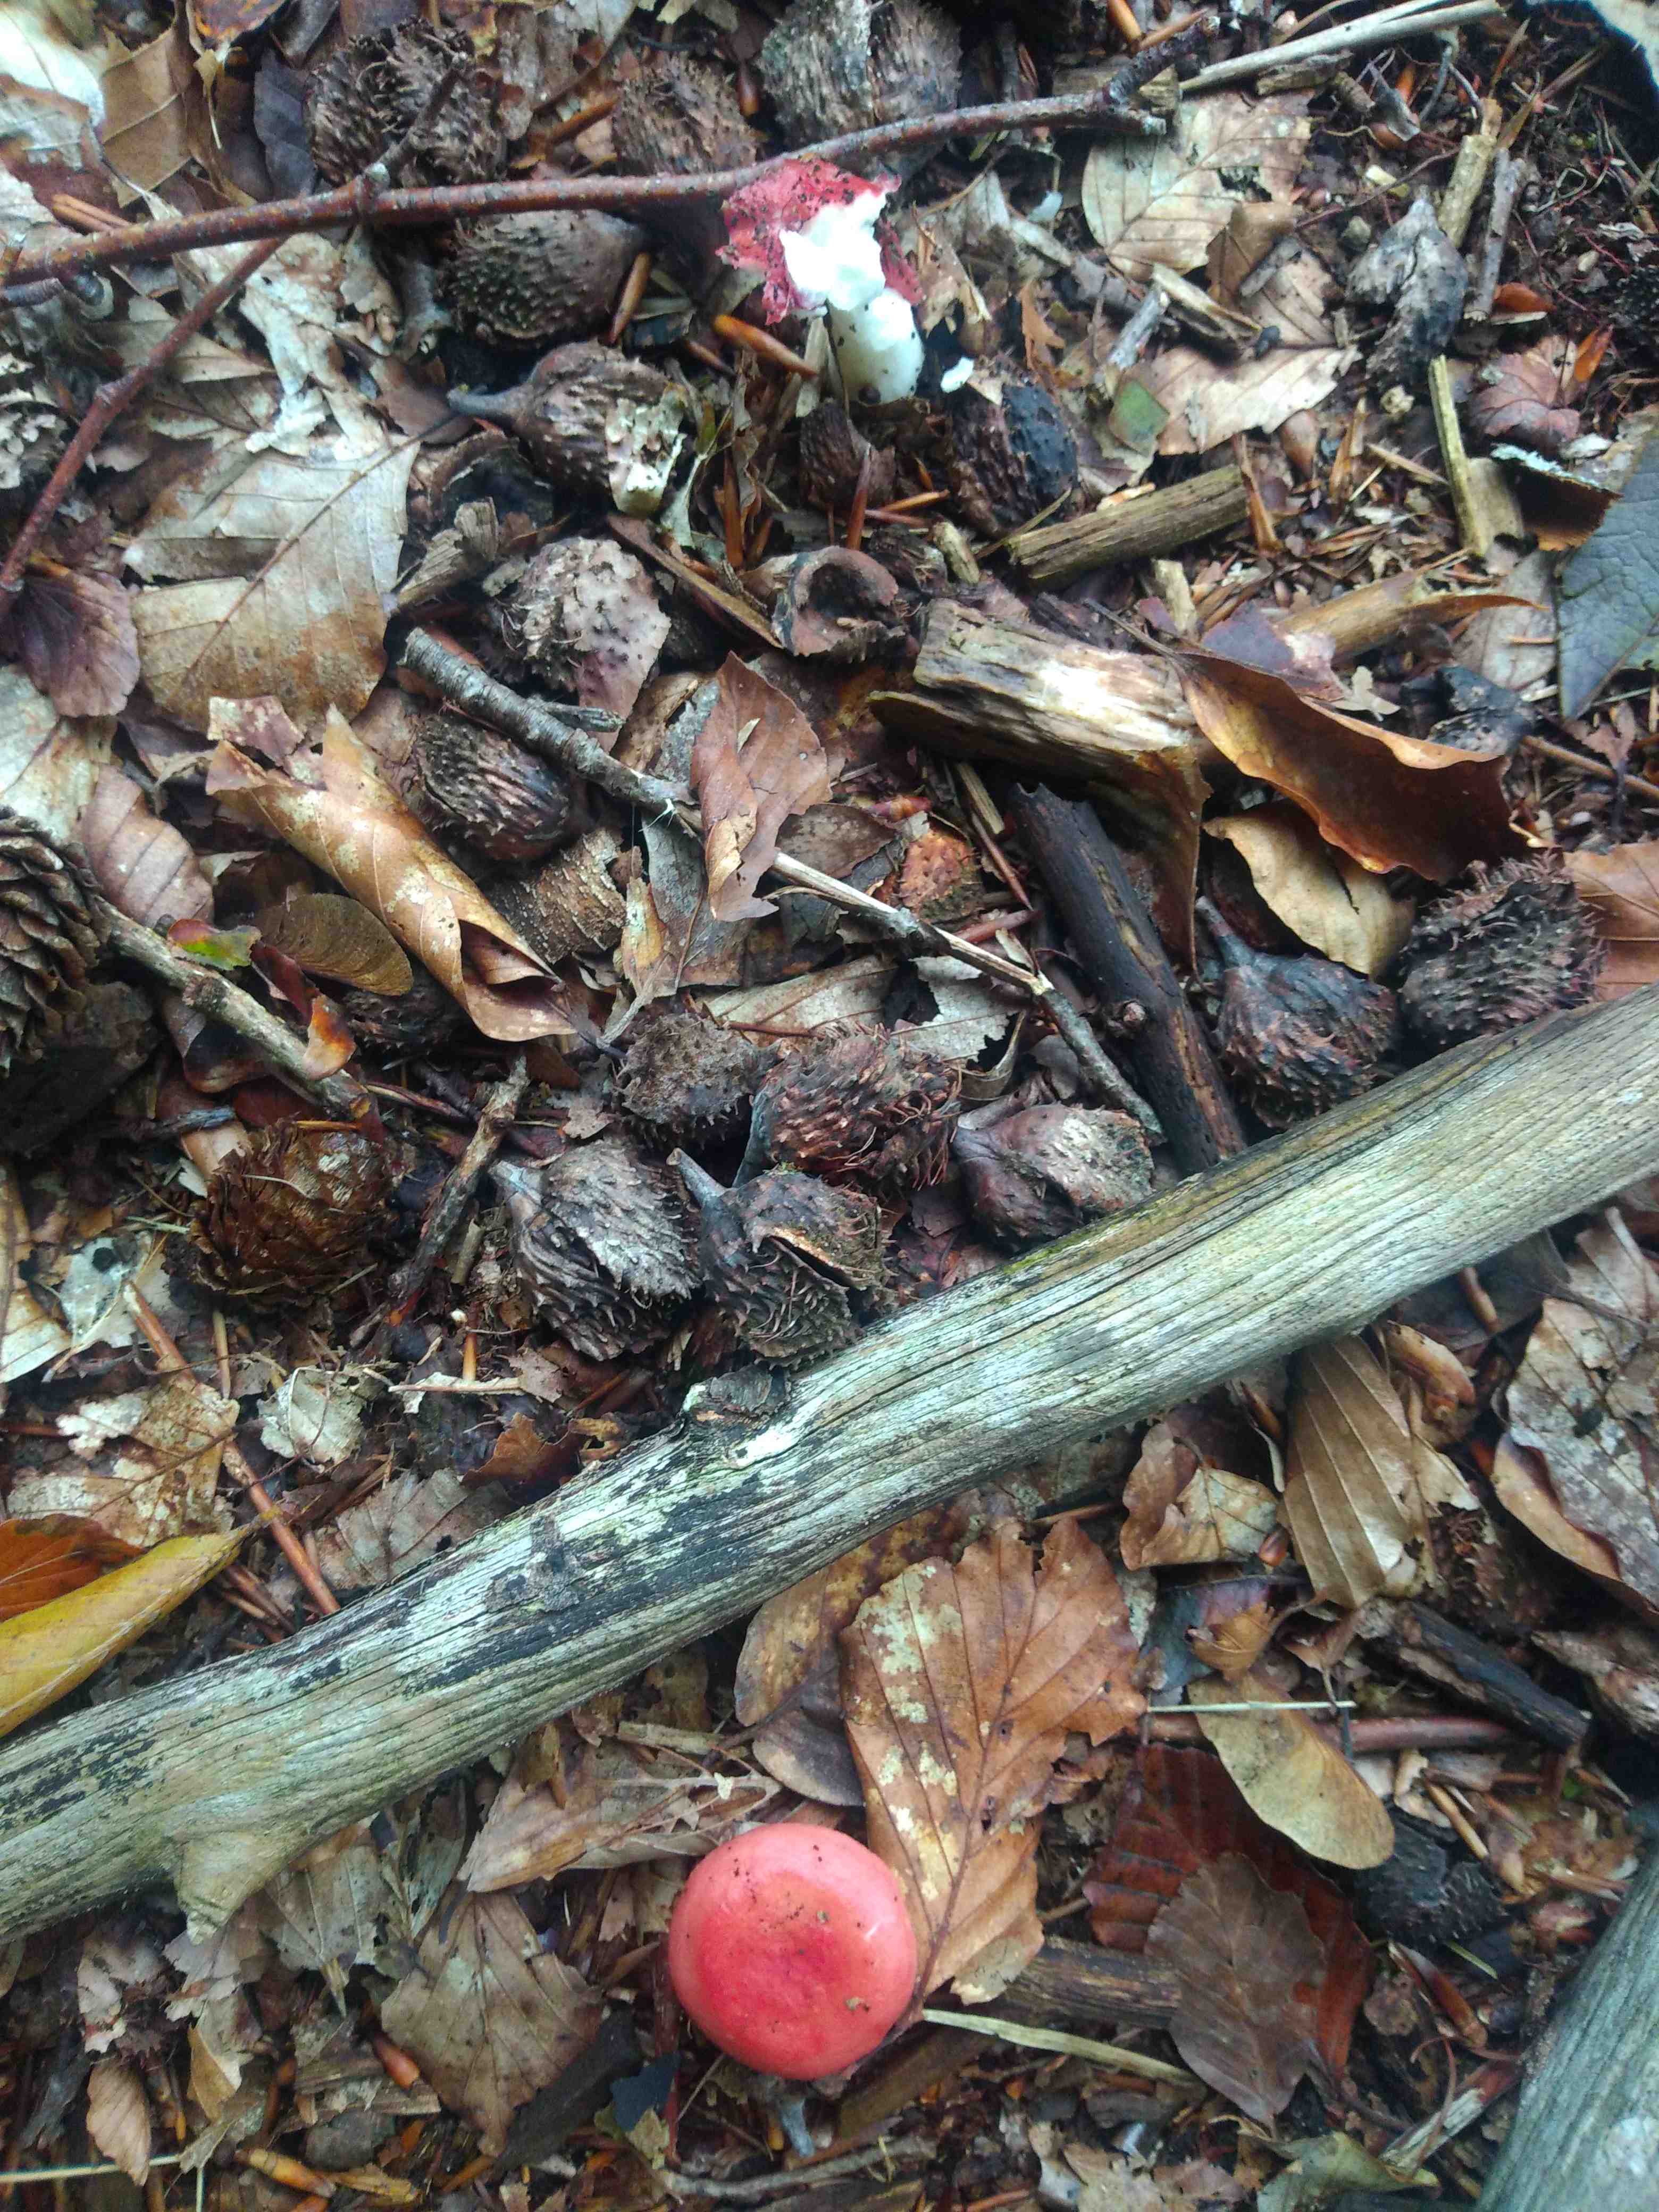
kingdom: Fungi
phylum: Basidiomycota
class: Agaricomycetes
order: Russulales
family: Russulaceae
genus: Russula
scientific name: Russula
